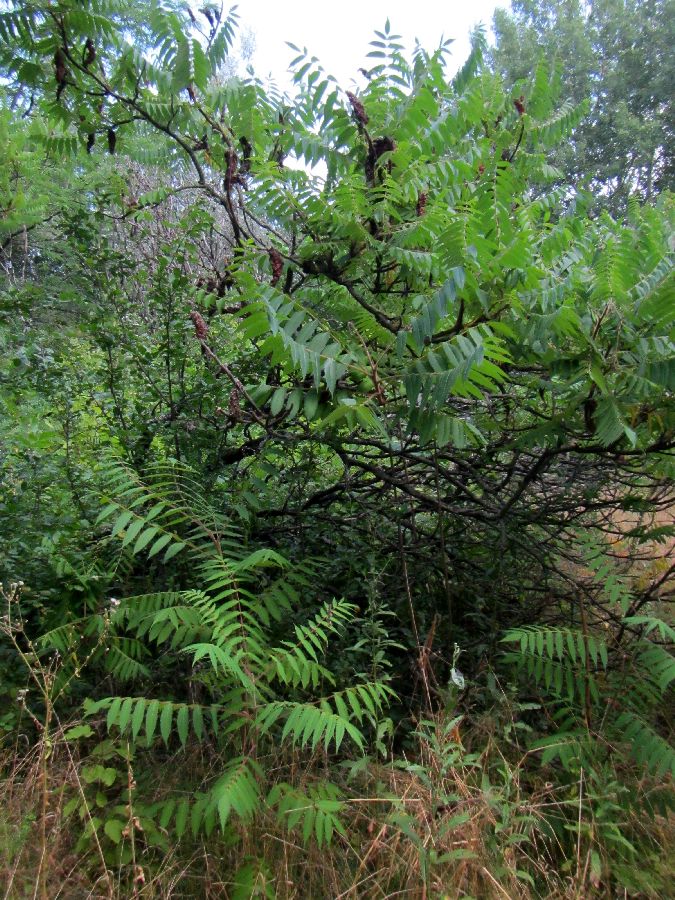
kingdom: Plantae
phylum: Tracheophyta
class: Magnoliopsida
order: Sapindales
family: Anacardiaceae
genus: Rhus
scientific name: Rhus typhina
